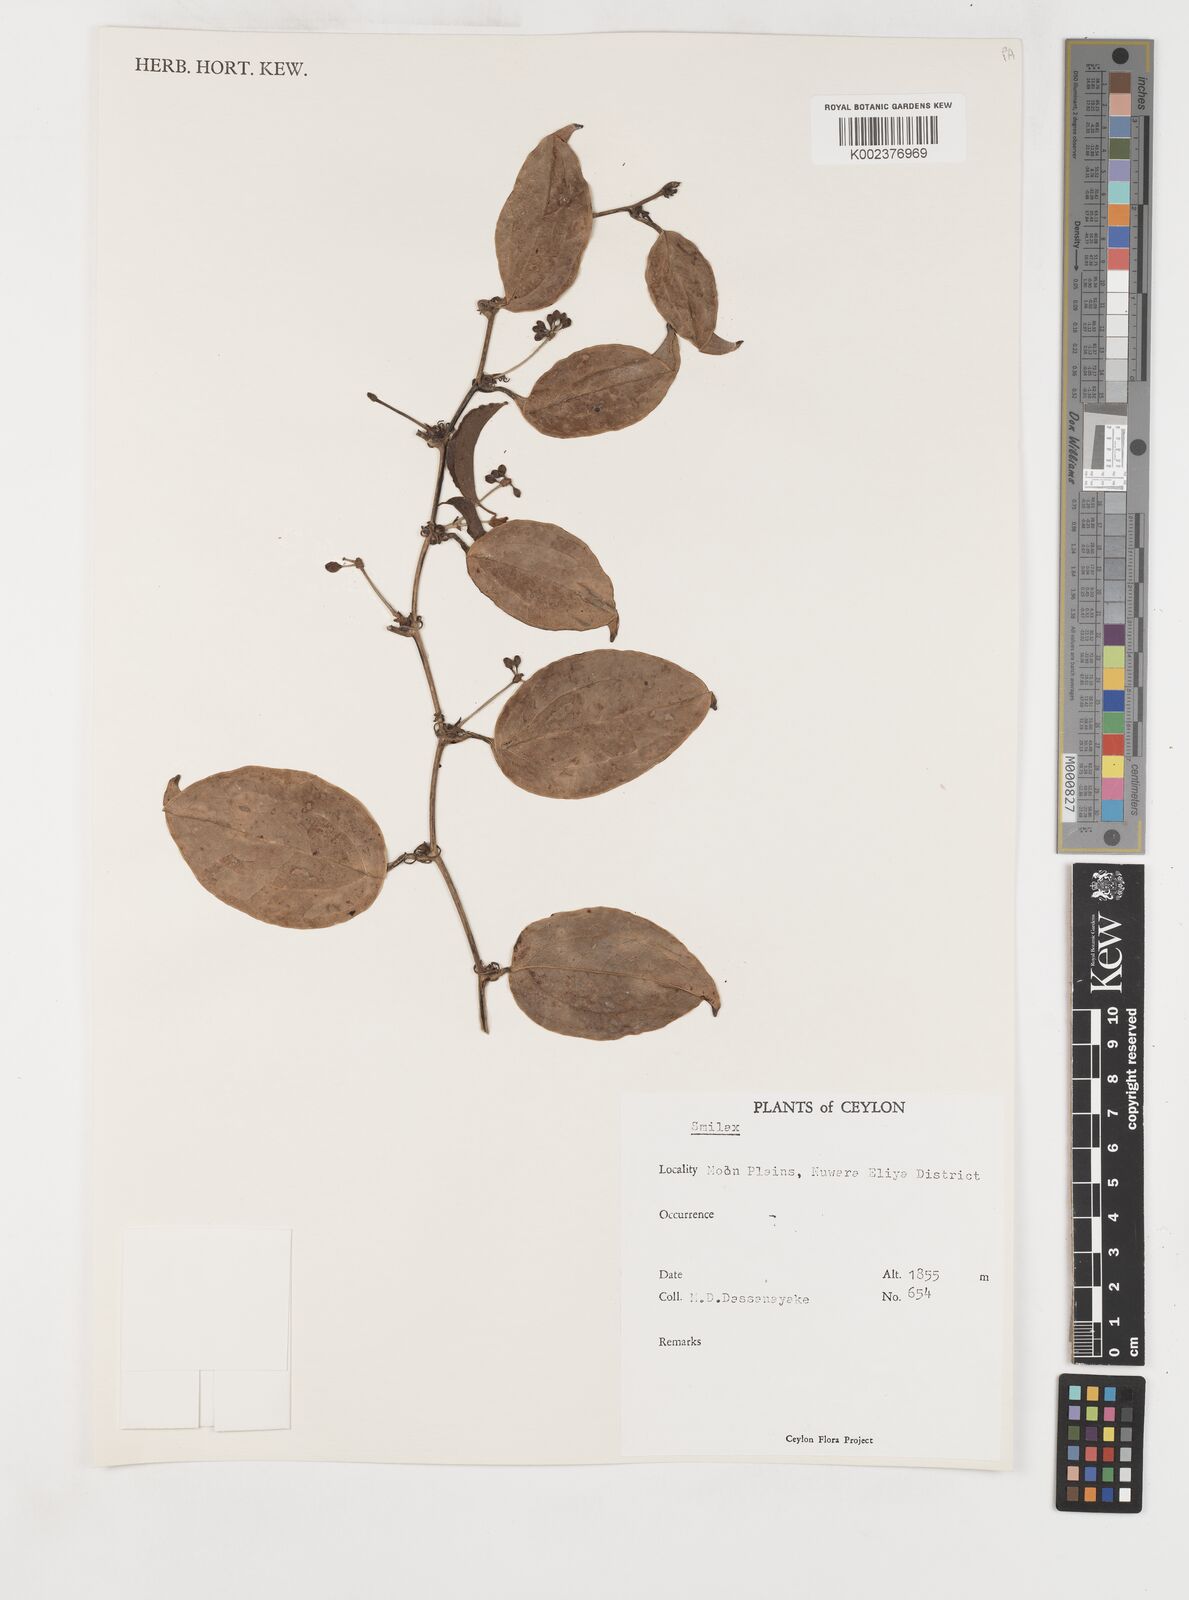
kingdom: Plantae
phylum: Tracheophyta
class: Liliopsida
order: Liliales
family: Smilacaceae
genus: Smilax
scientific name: Smilax
